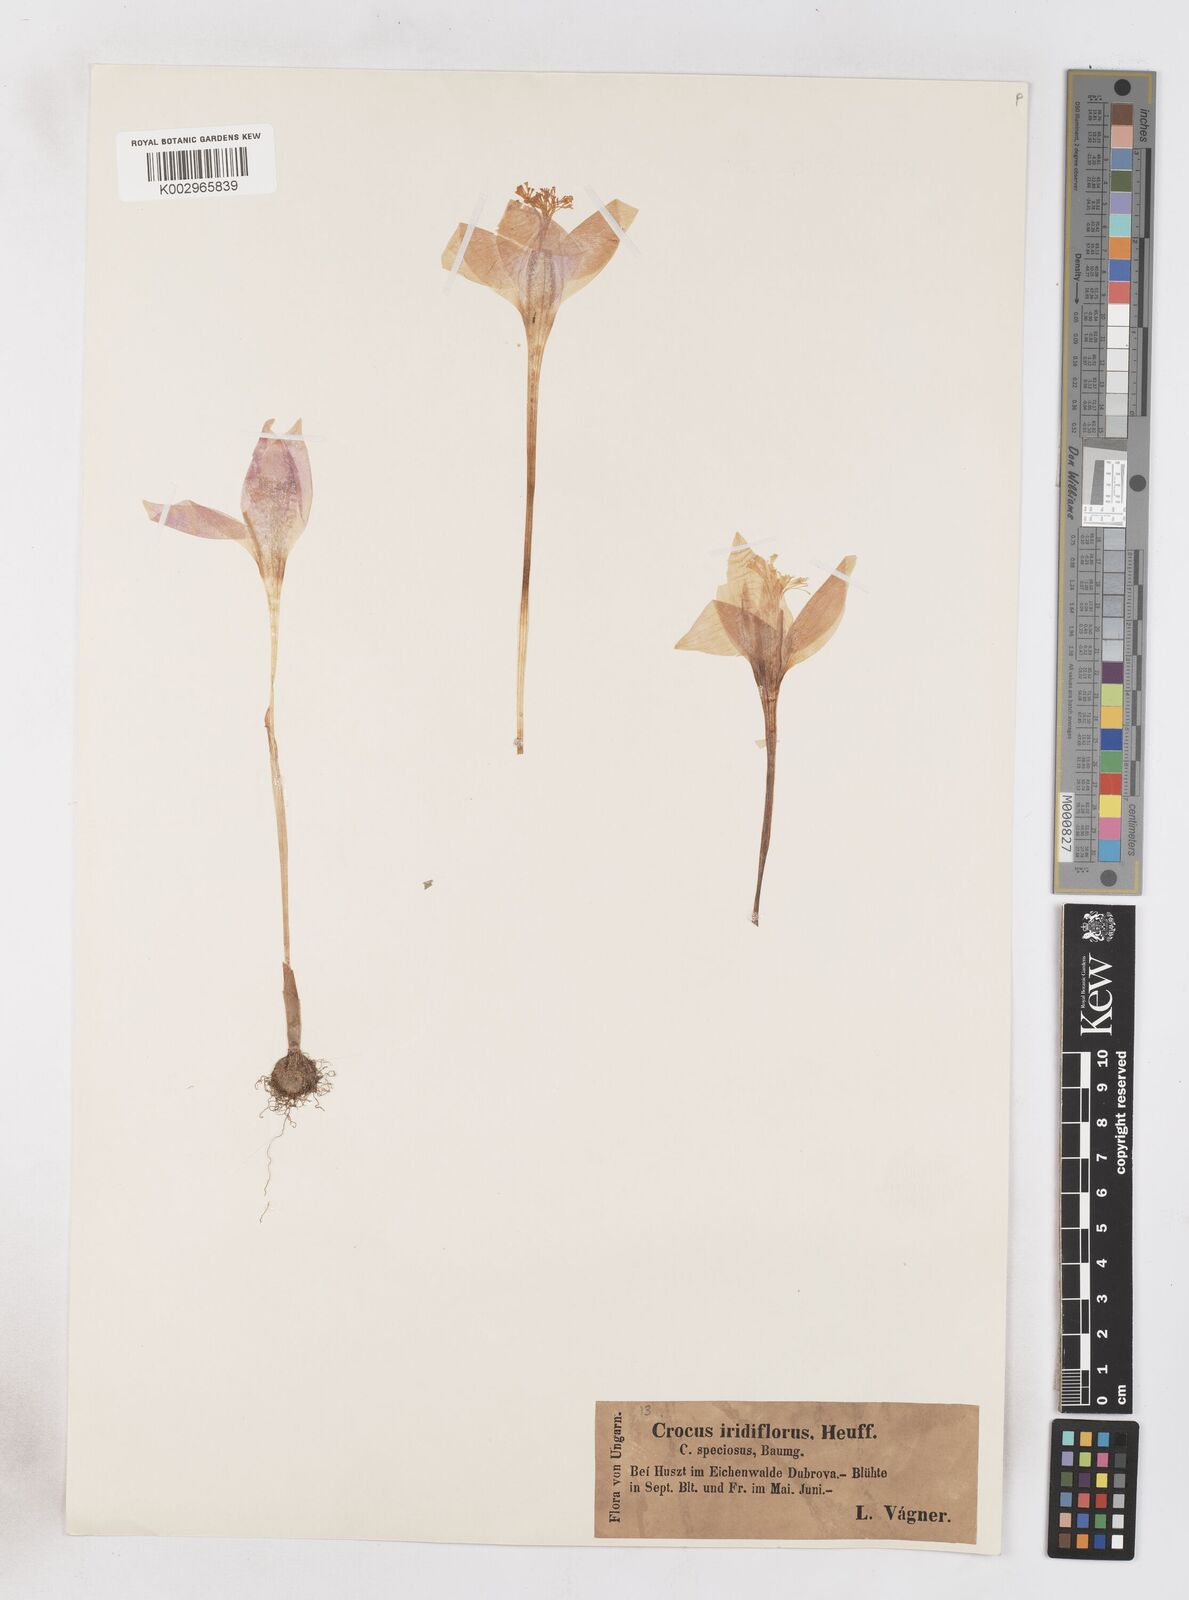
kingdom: Plantae
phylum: Tracheophyta
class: Liliopsida
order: Asparagales
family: Iridaceae
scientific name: Iridaceae
